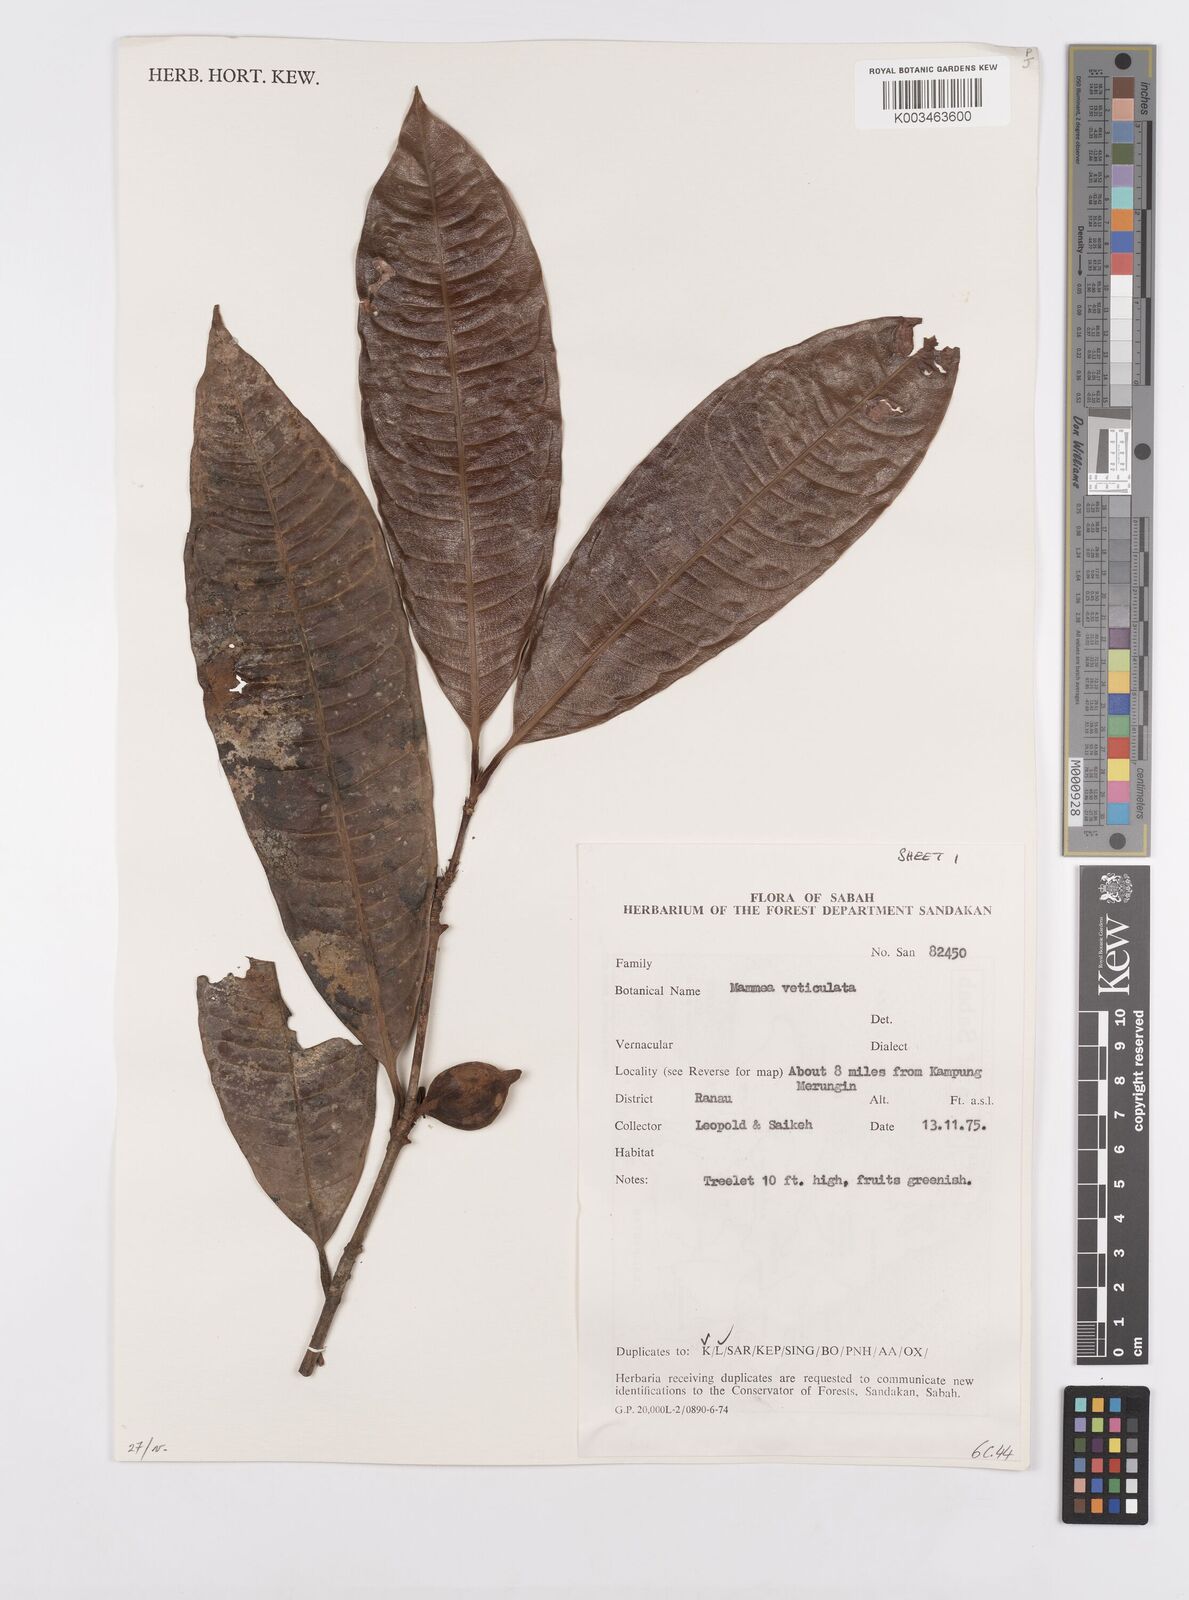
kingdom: Plantae
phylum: Tracheophyta
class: Magnoliopsida
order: Malpighiales
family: Calophyllaceae
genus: Mammea
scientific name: Mammea
